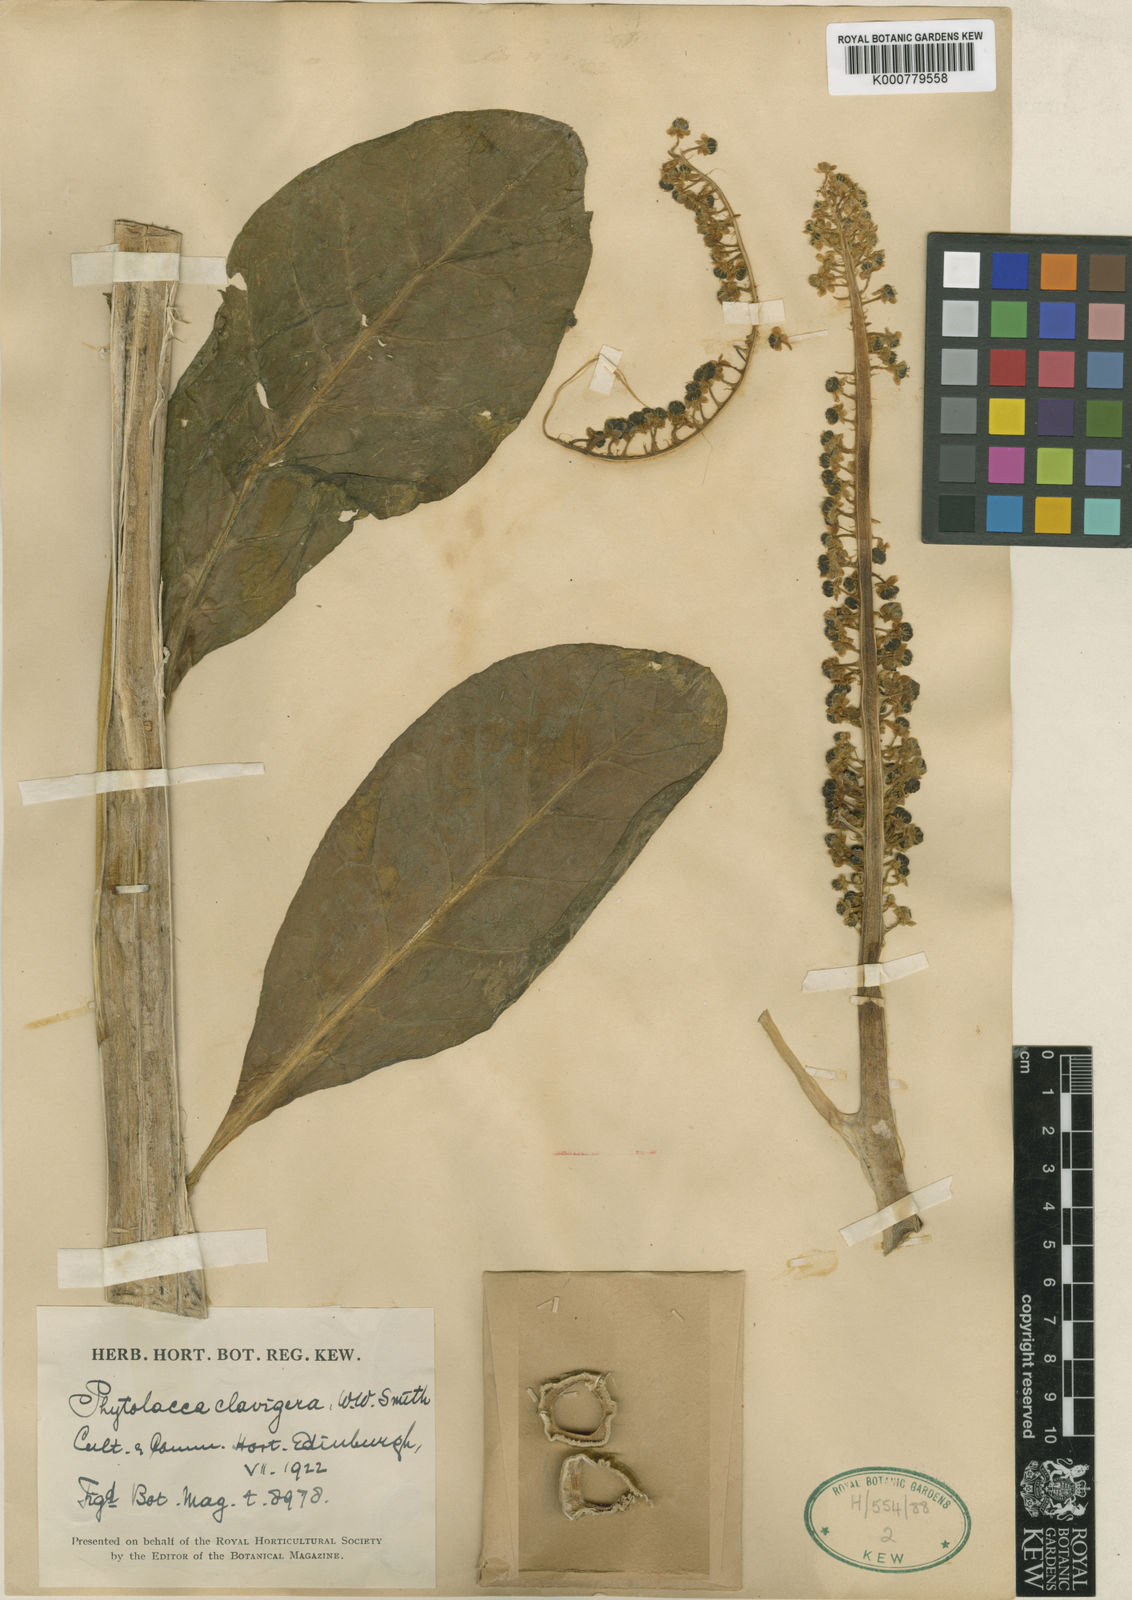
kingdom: Plantae
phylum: Tracheophyta
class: Magnoliopsida
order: Caryophyllales
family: Phytolaccaceae
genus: Phytolacca
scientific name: Phytolacca polyandra
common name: Chinese pokeweed
